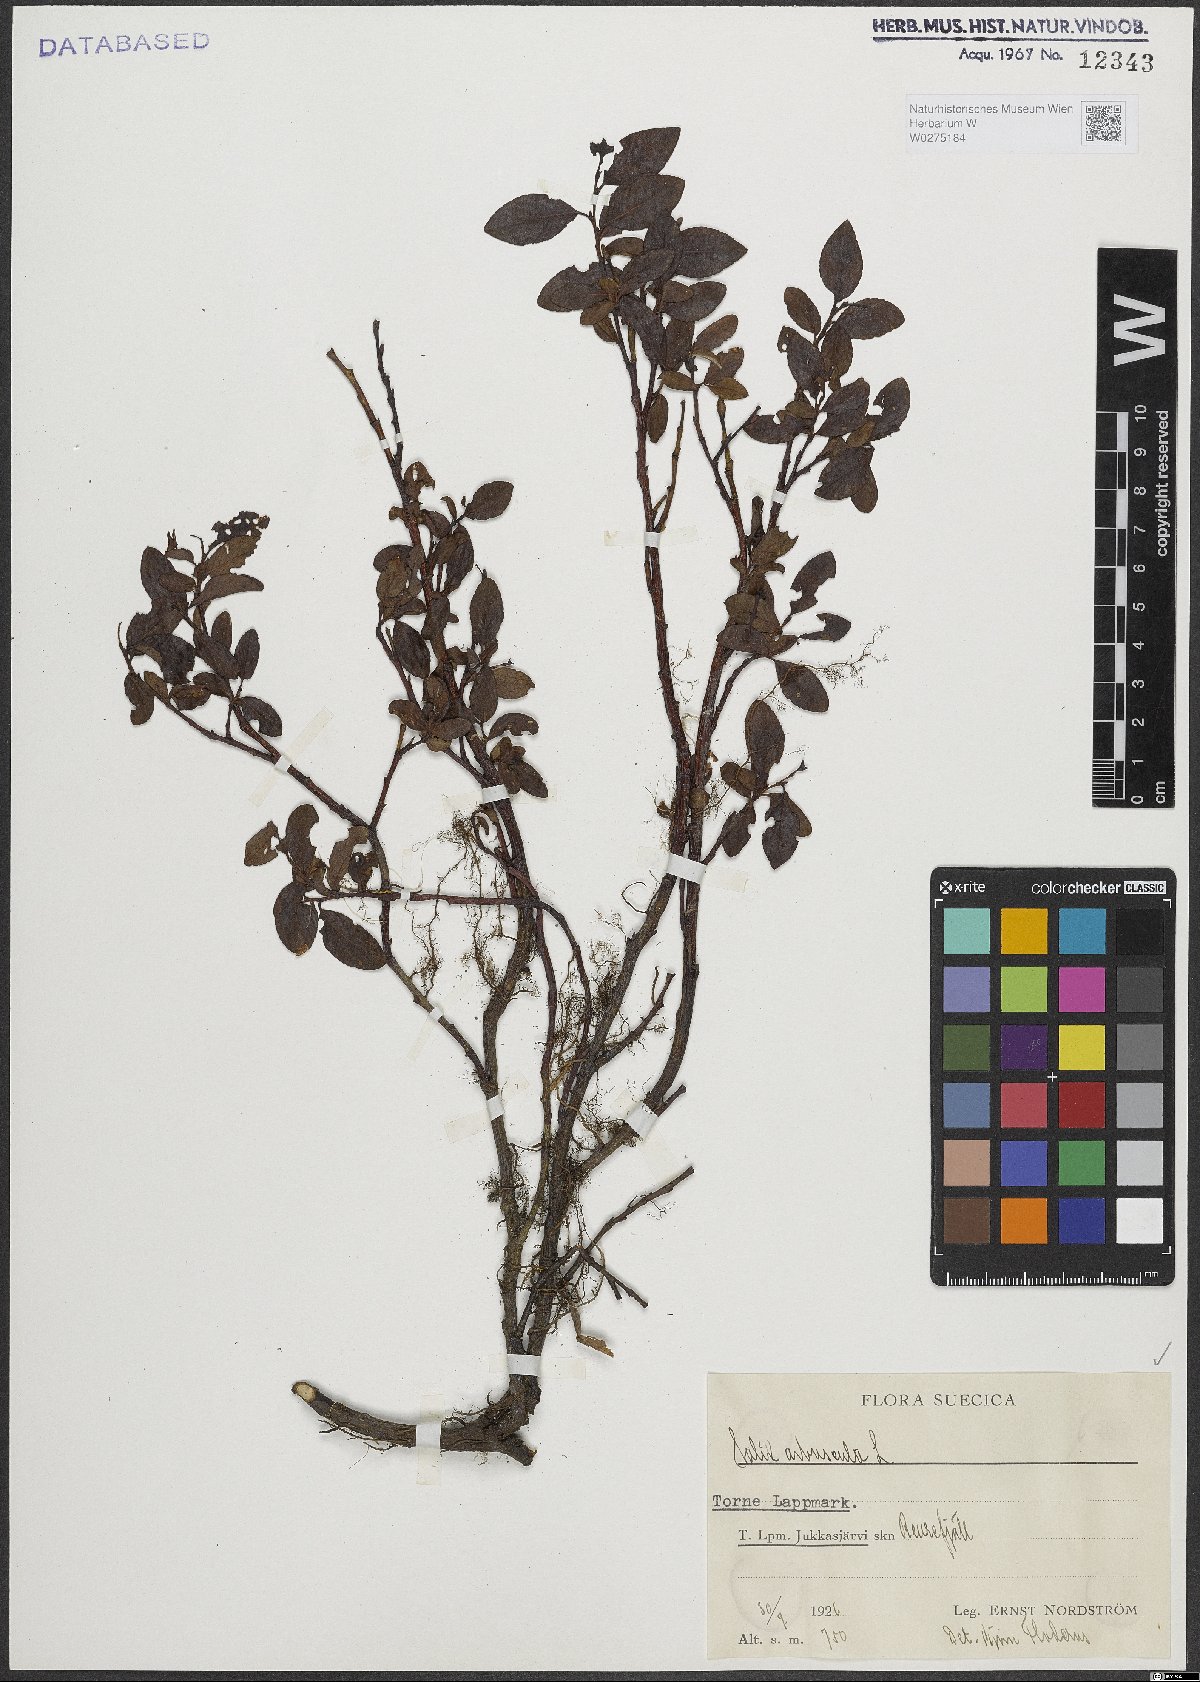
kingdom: Plantae
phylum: Tracheophyta
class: Magnoliopsida
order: Malpighiales
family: Salicaceae
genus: Salix
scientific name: Salix arbuscula
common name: Mountain willow
